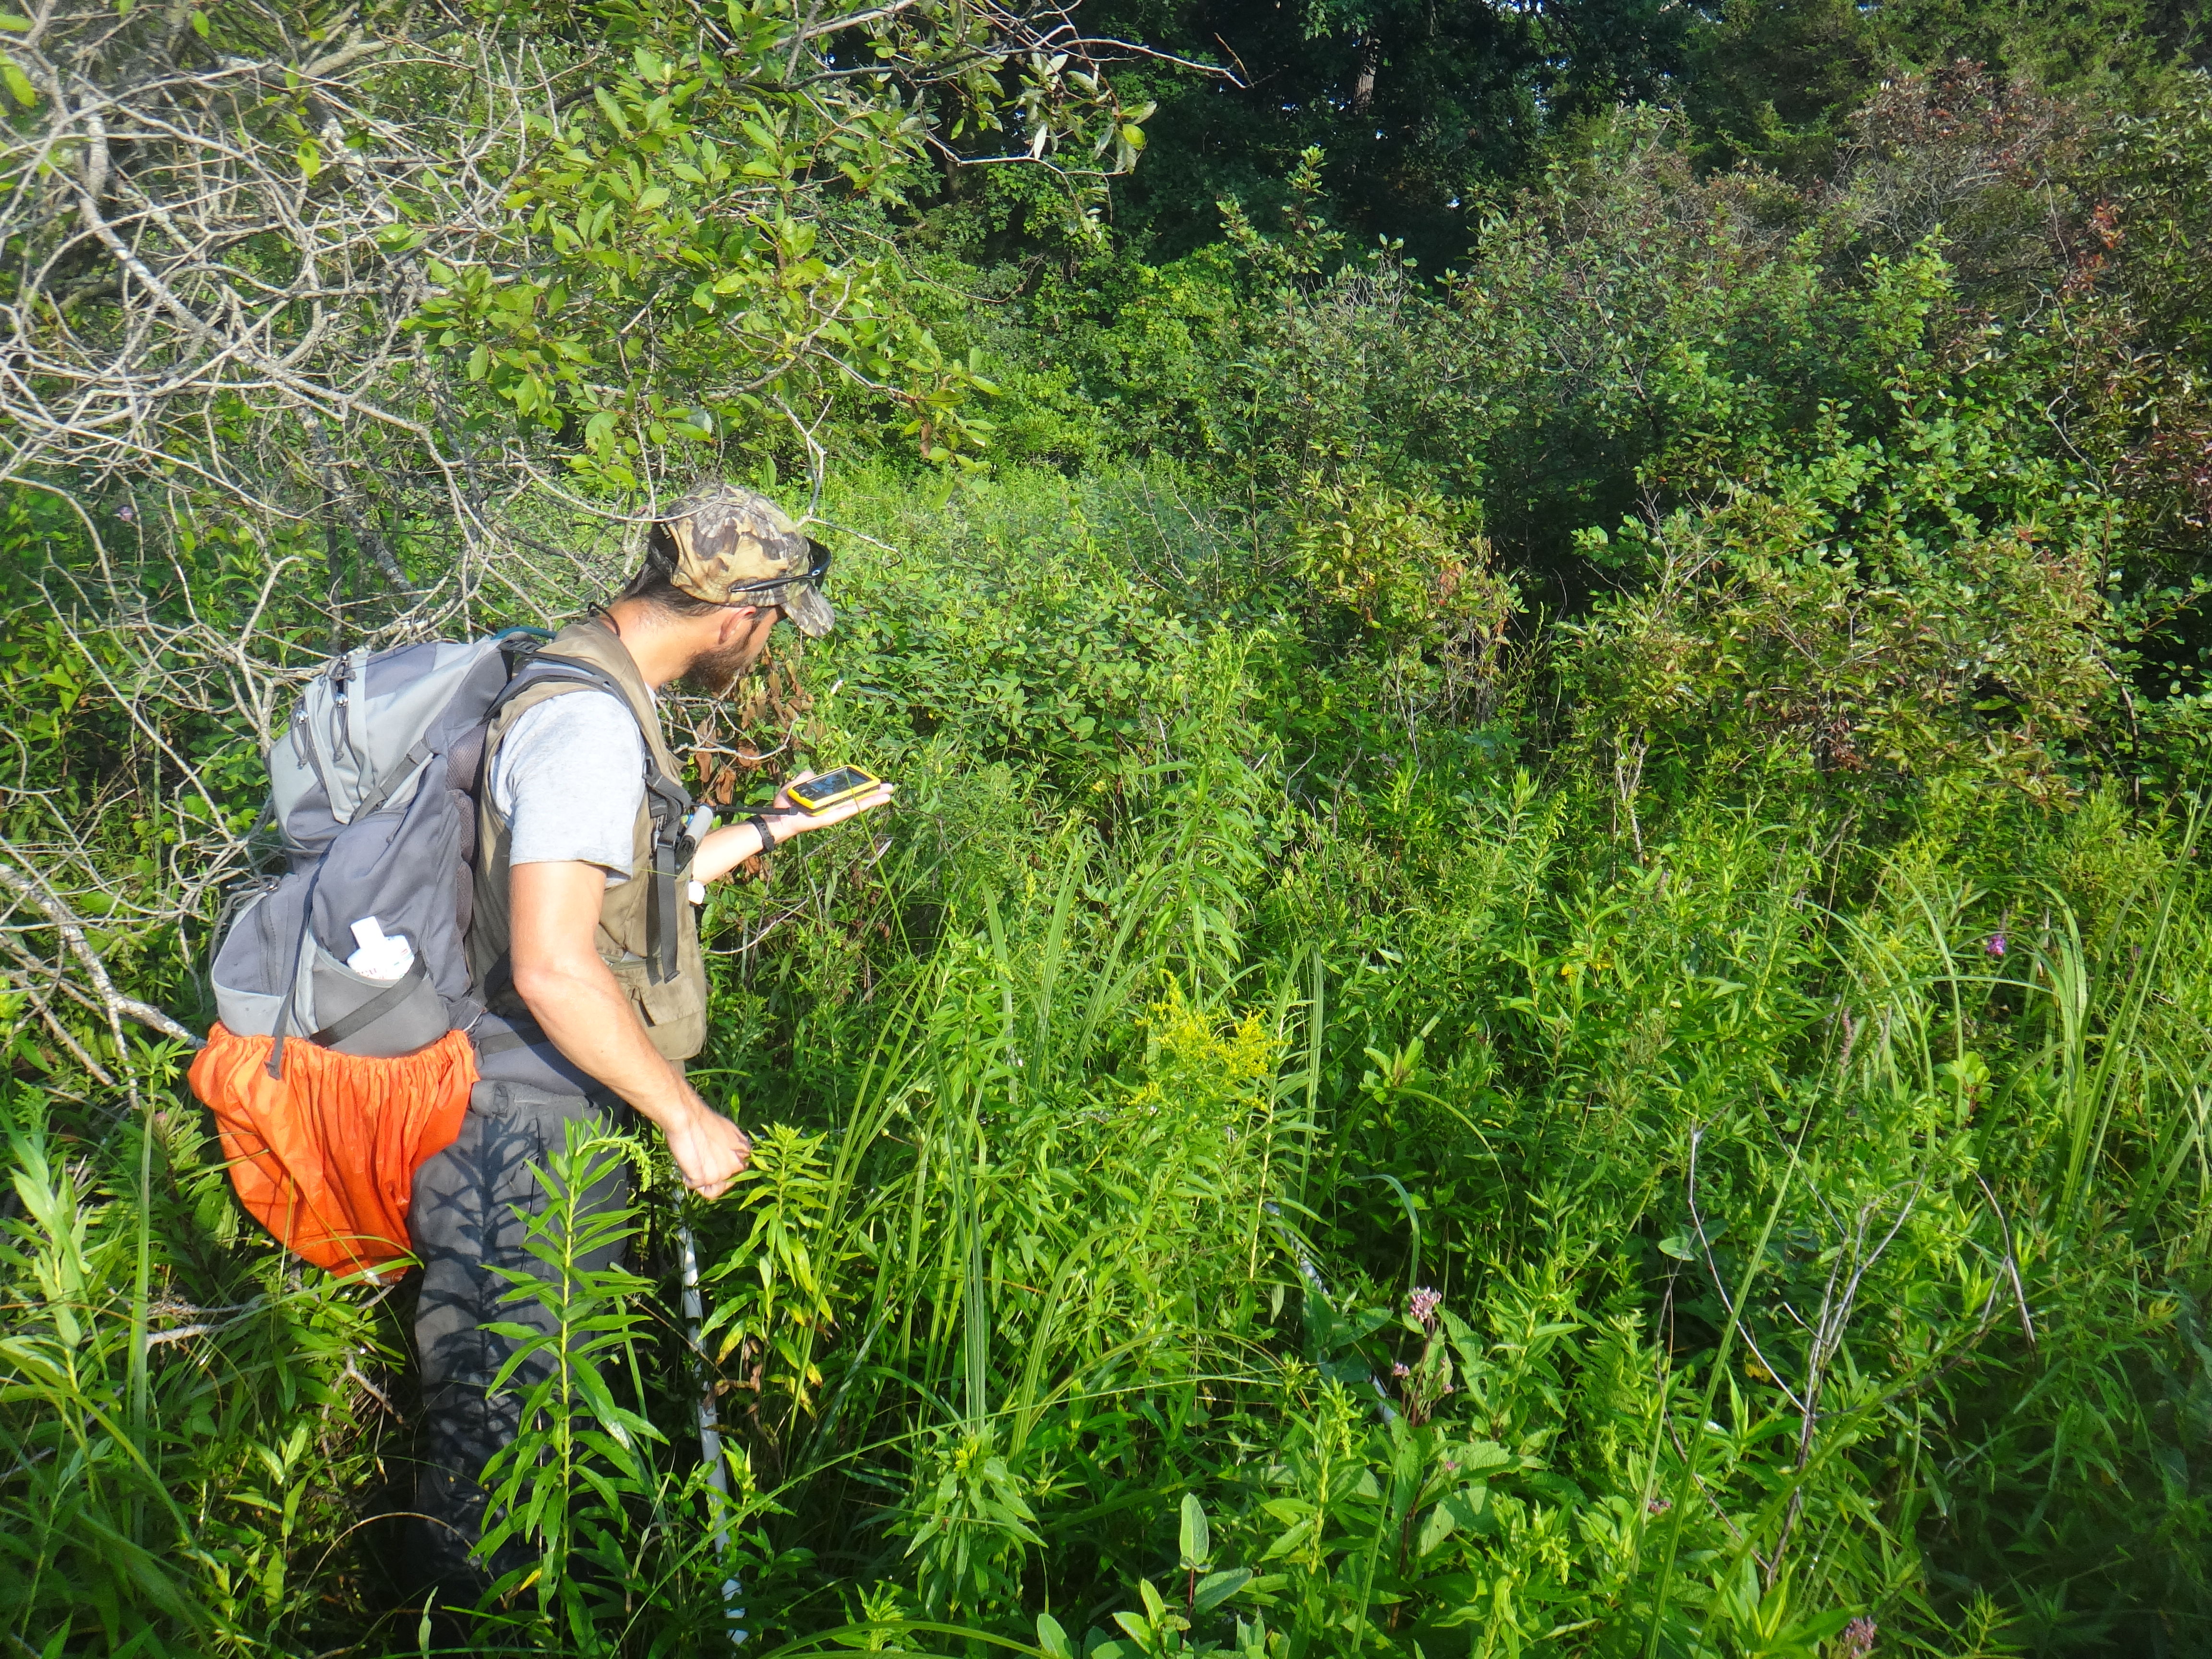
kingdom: Plantae
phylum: Tracheophyta
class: Magnoliopsida
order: Asterales
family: Asteraceae
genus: Solidago
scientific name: Solidago canadensis
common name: Canada goldenrod
